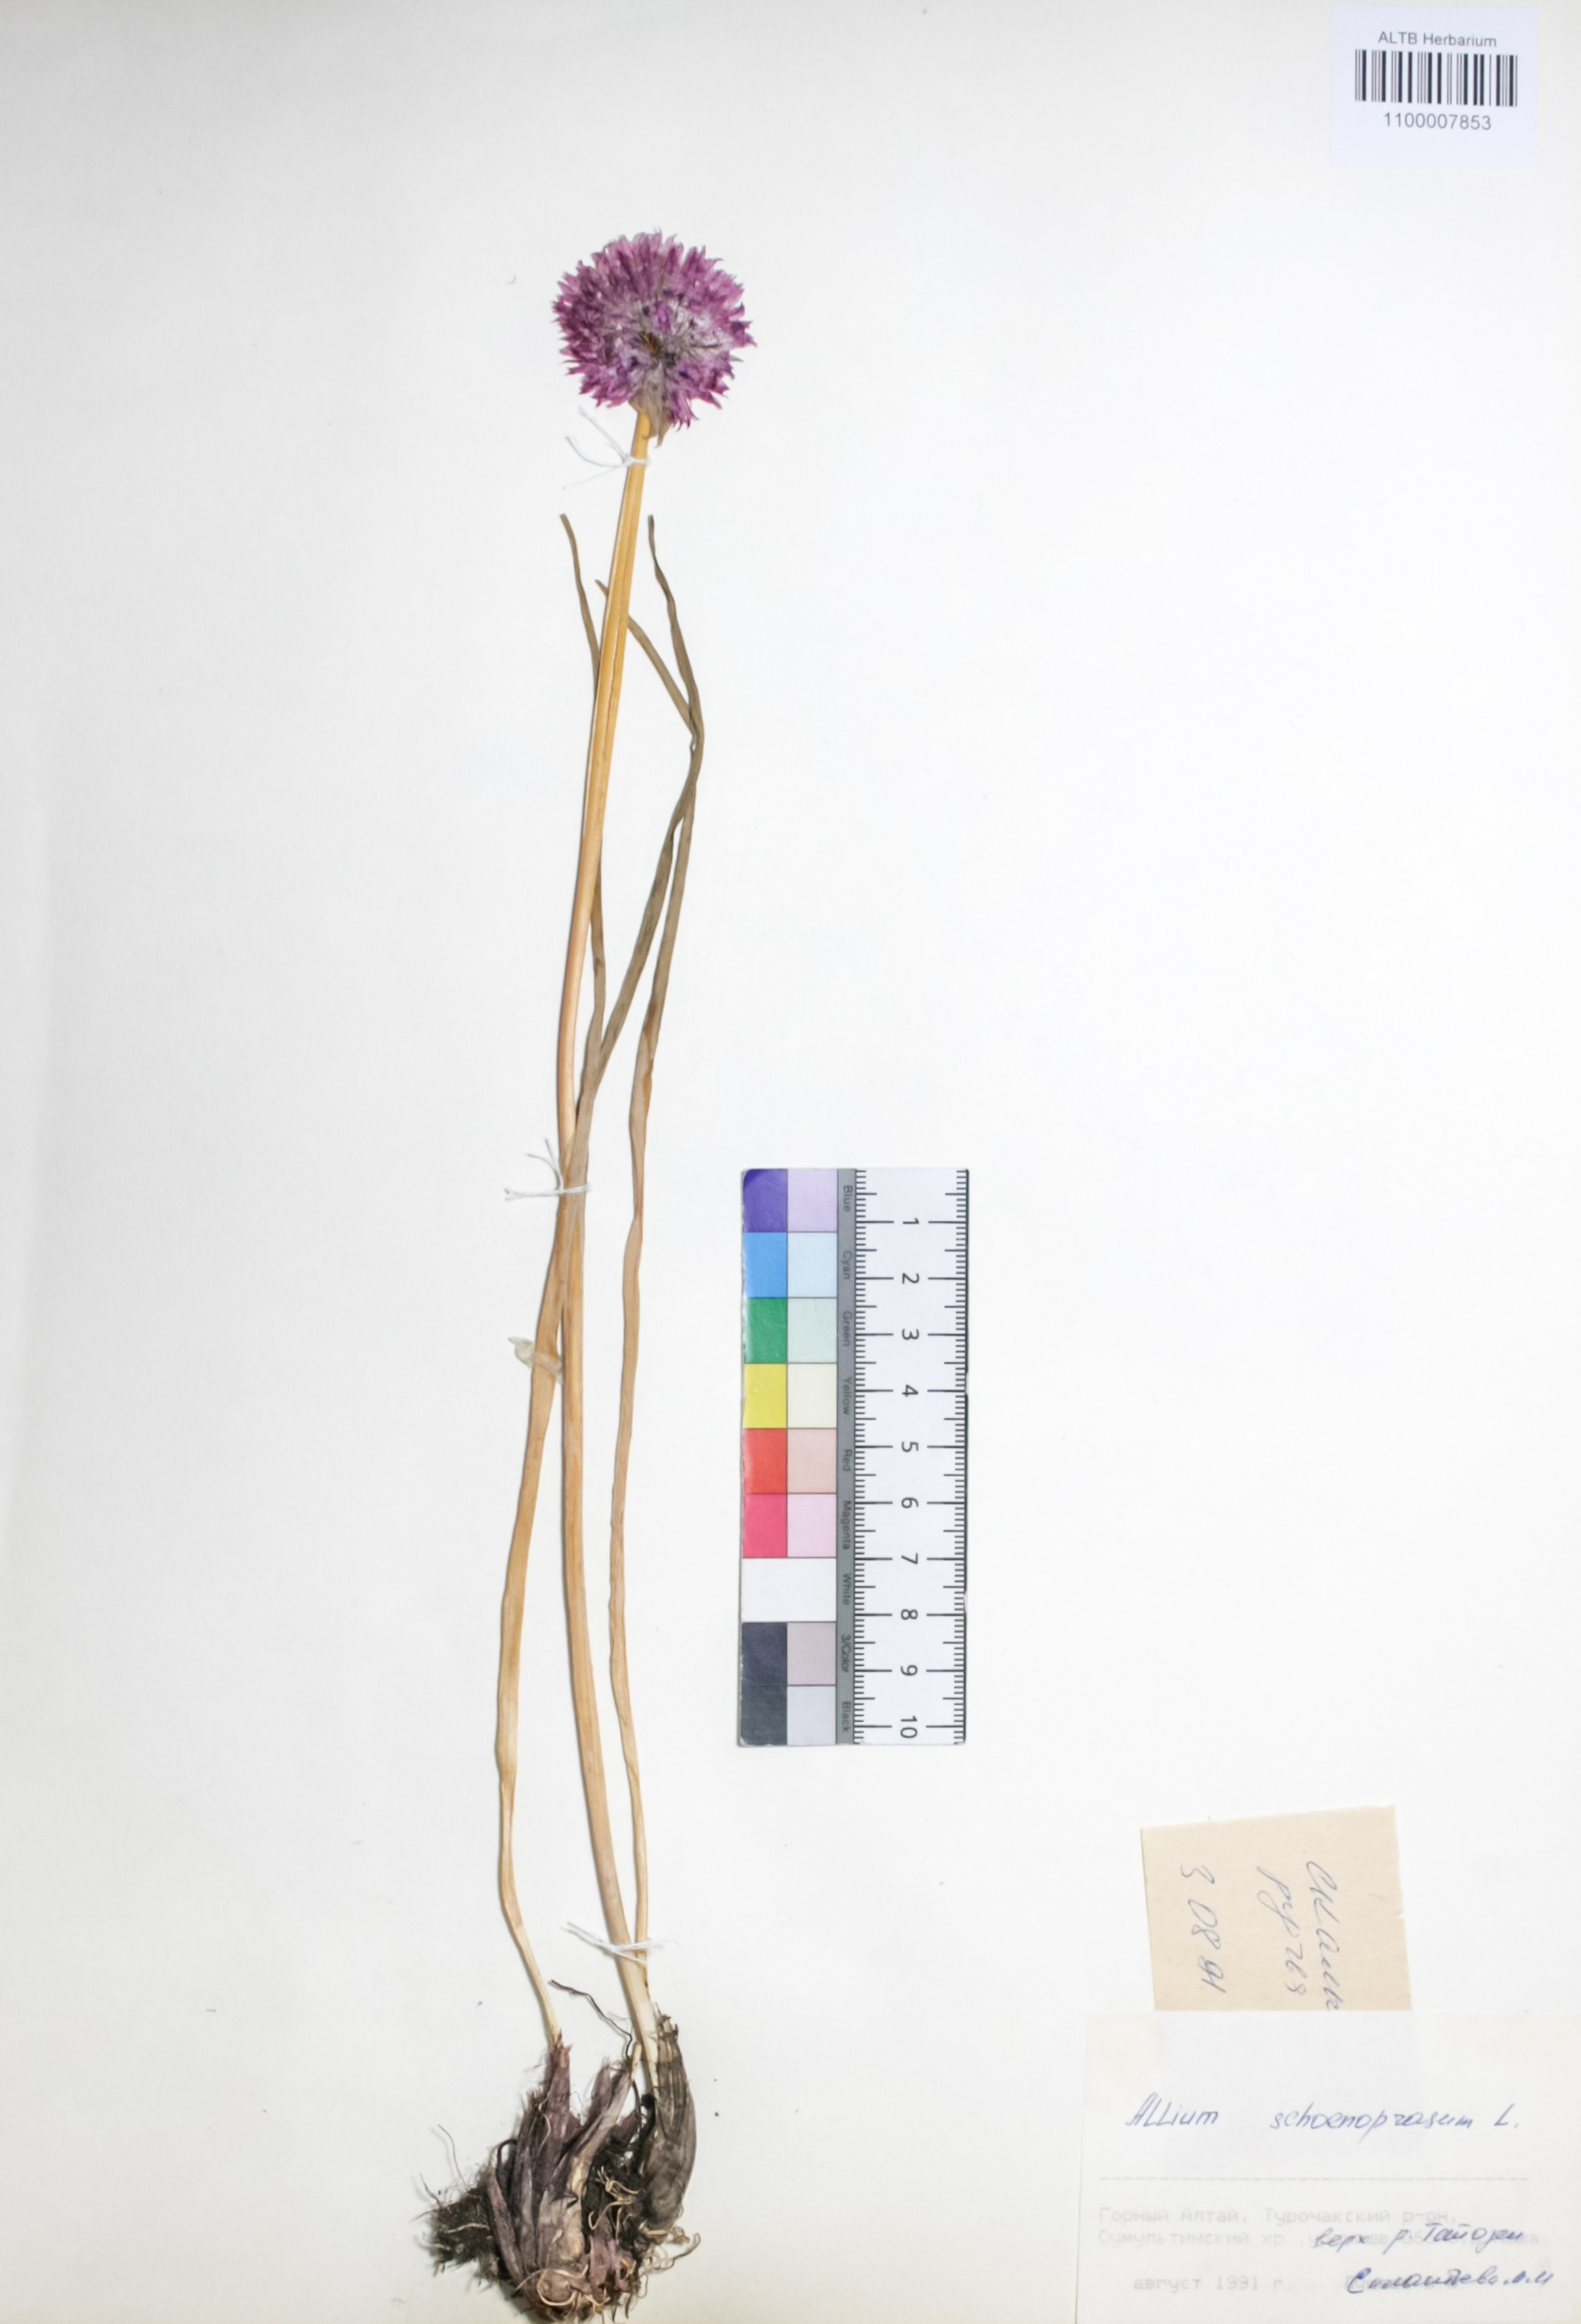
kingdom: Plantae
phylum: Tracheophyta
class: Liliopsida
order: Asparagales
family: Amaryllidaceae
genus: Allium
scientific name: Allium schoenoprasum
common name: Chives
